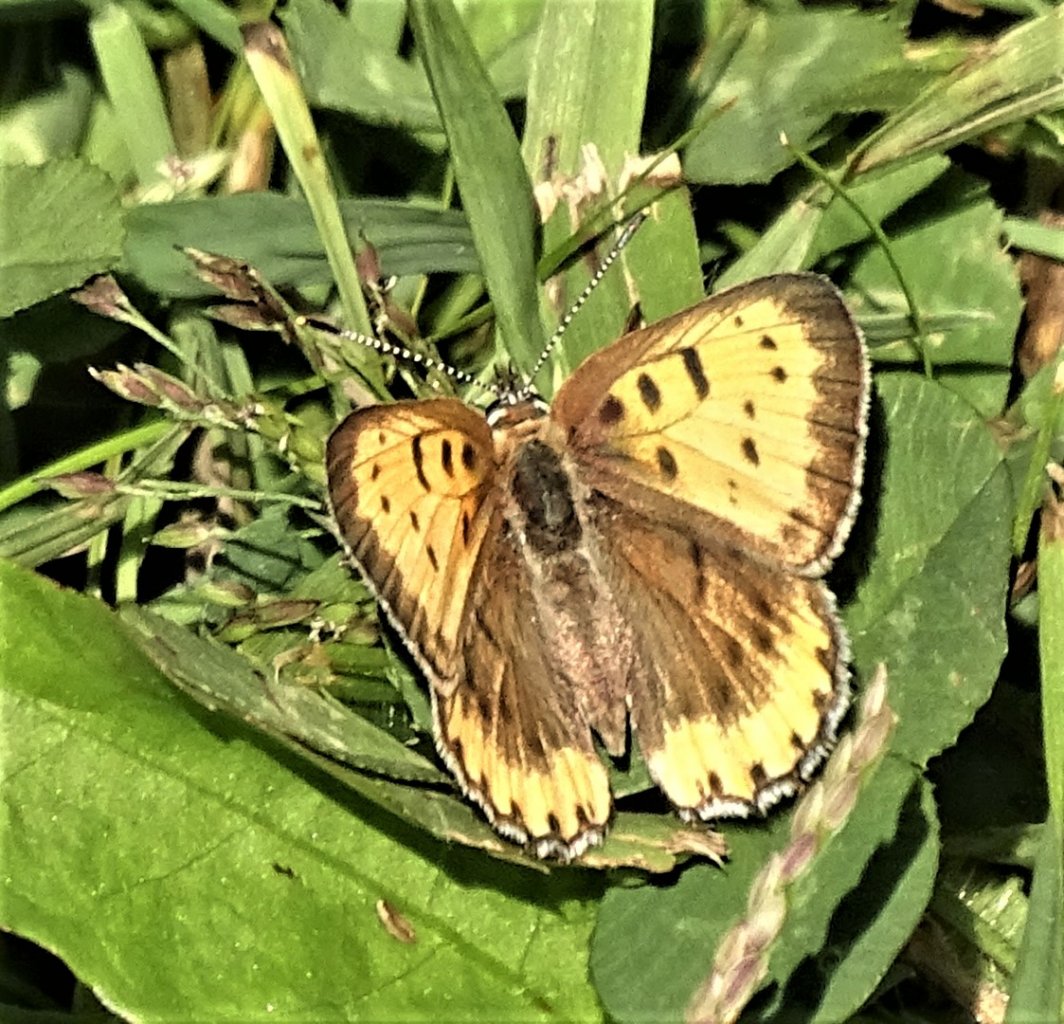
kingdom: Animalia
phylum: Arthropoda
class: Insecta
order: Lepidoptera
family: Sesiidae
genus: Sesia
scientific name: Sesia Lycaena hyllus
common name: Bronze Copper
